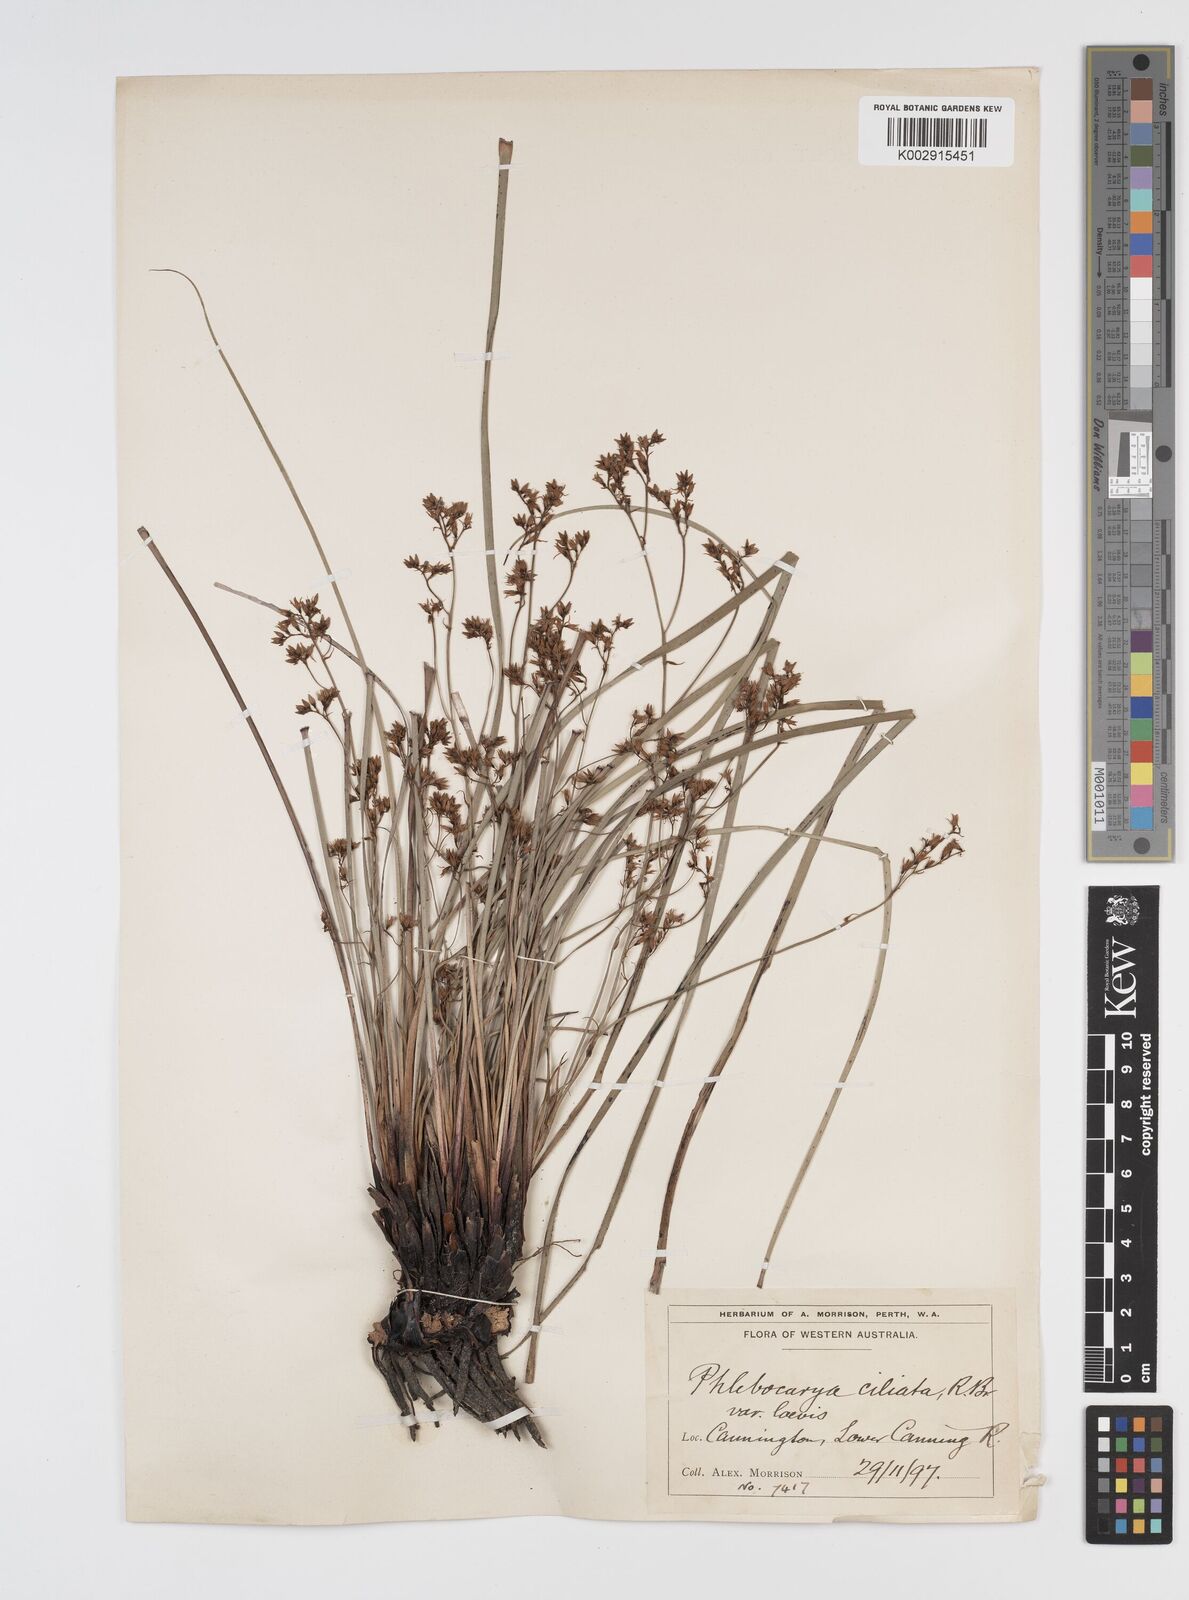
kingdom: Plantae
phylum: Tracheophyta
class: Liliopsida
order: Commelinales
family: Haemodoraceae
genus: Phlebocarya
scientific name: Phlebocarya ciliata
